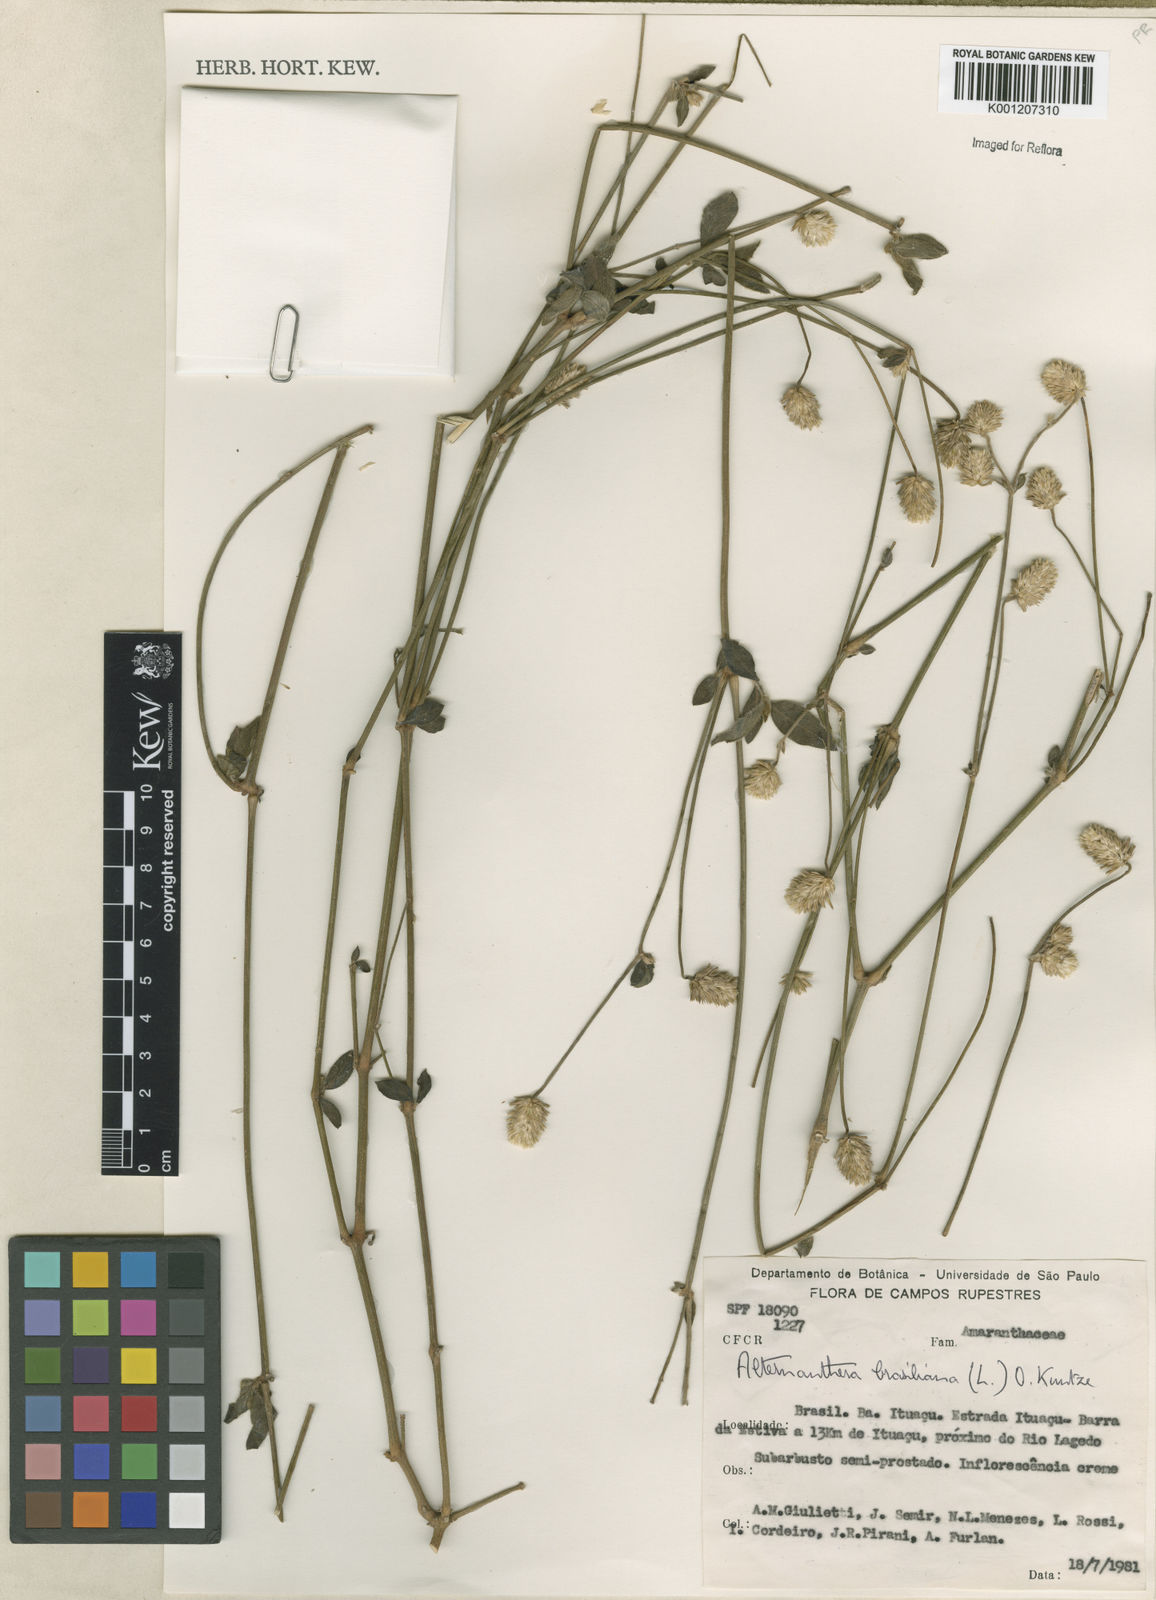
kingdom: Plantae
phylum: Tracheophyta
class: Magnoliopsida
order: Caryophyllales
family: Amaranthaceae
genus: Alternanthera
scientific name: Alternanthera brasiliana
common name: Brazilian joyweed
